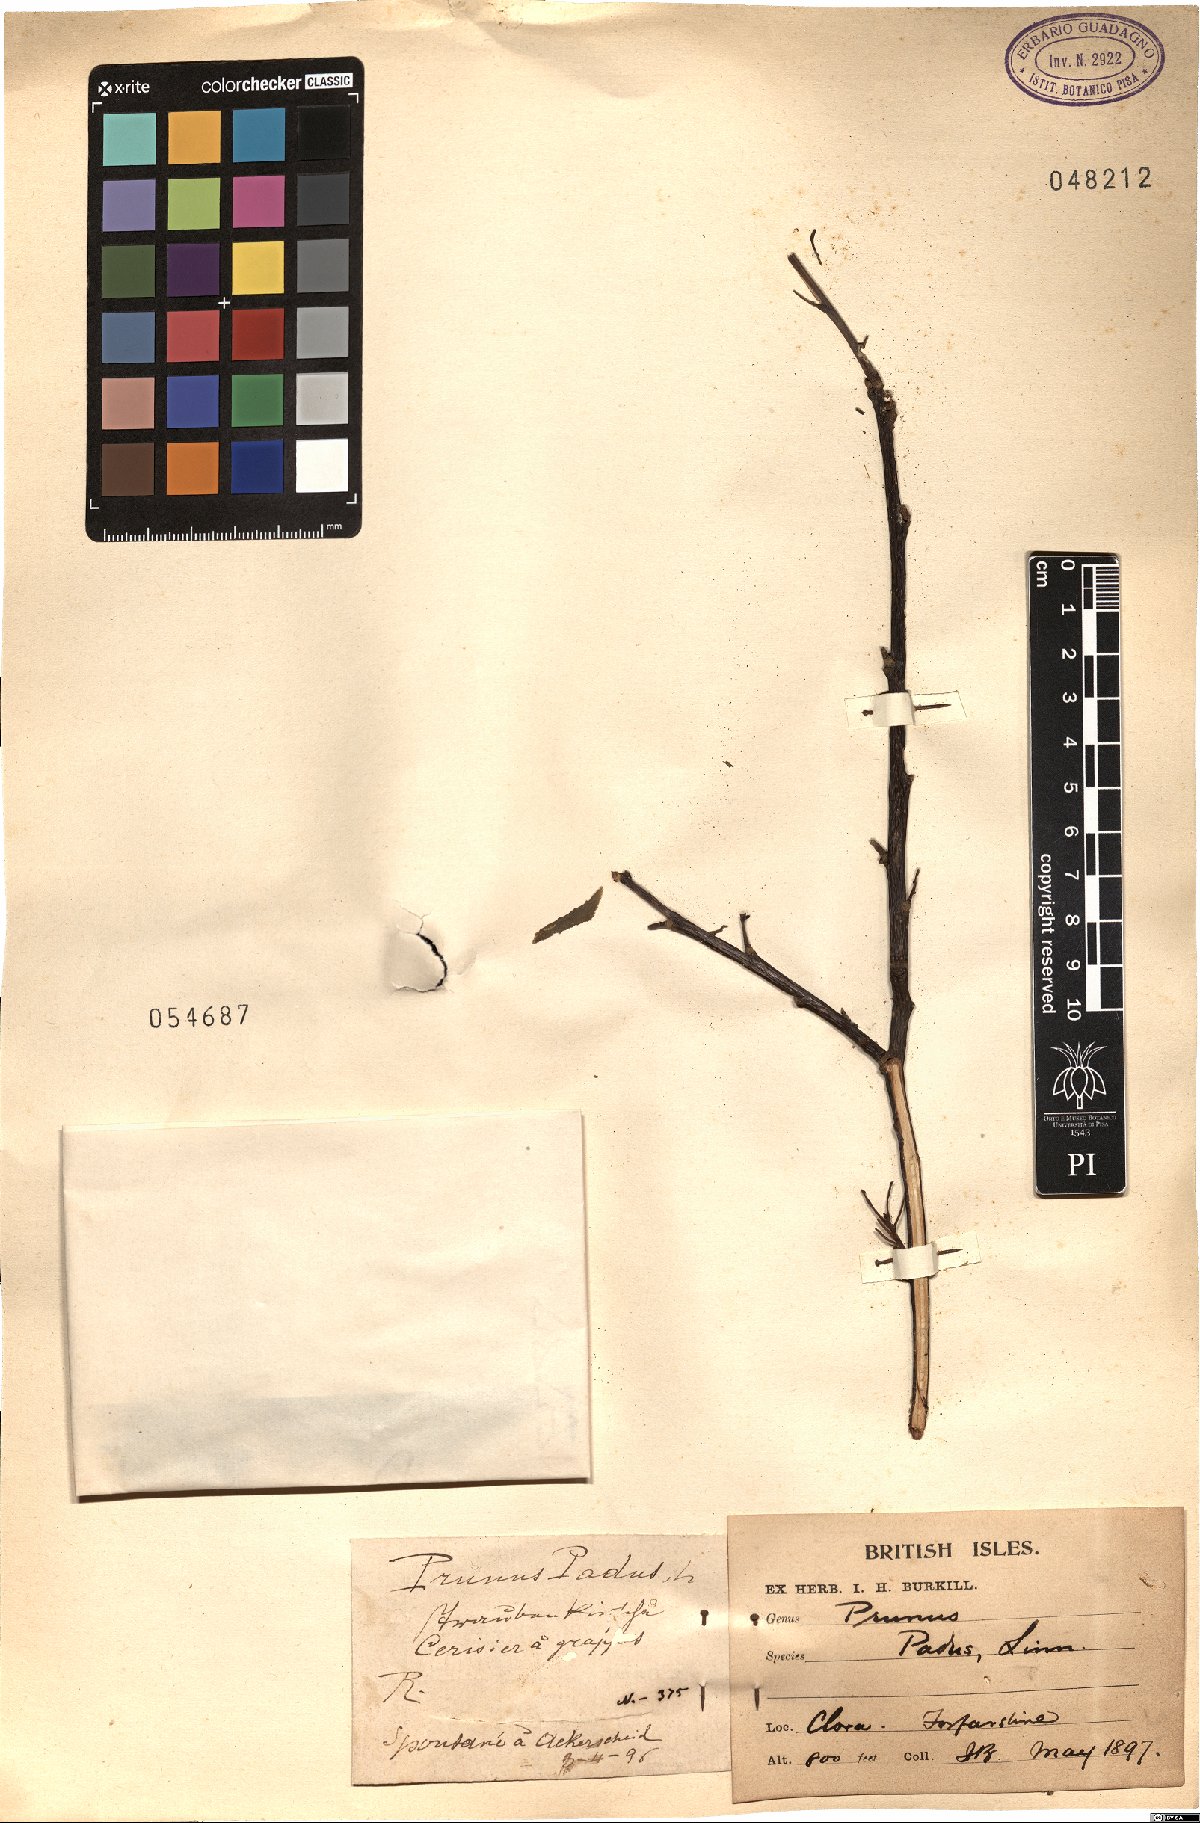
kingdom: Plantae
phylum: Tracheophyta
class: Magnoliopsida
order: Rosales
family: Rosaceae
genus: Prunus
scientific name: Prunus padus
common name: Bird cherry
